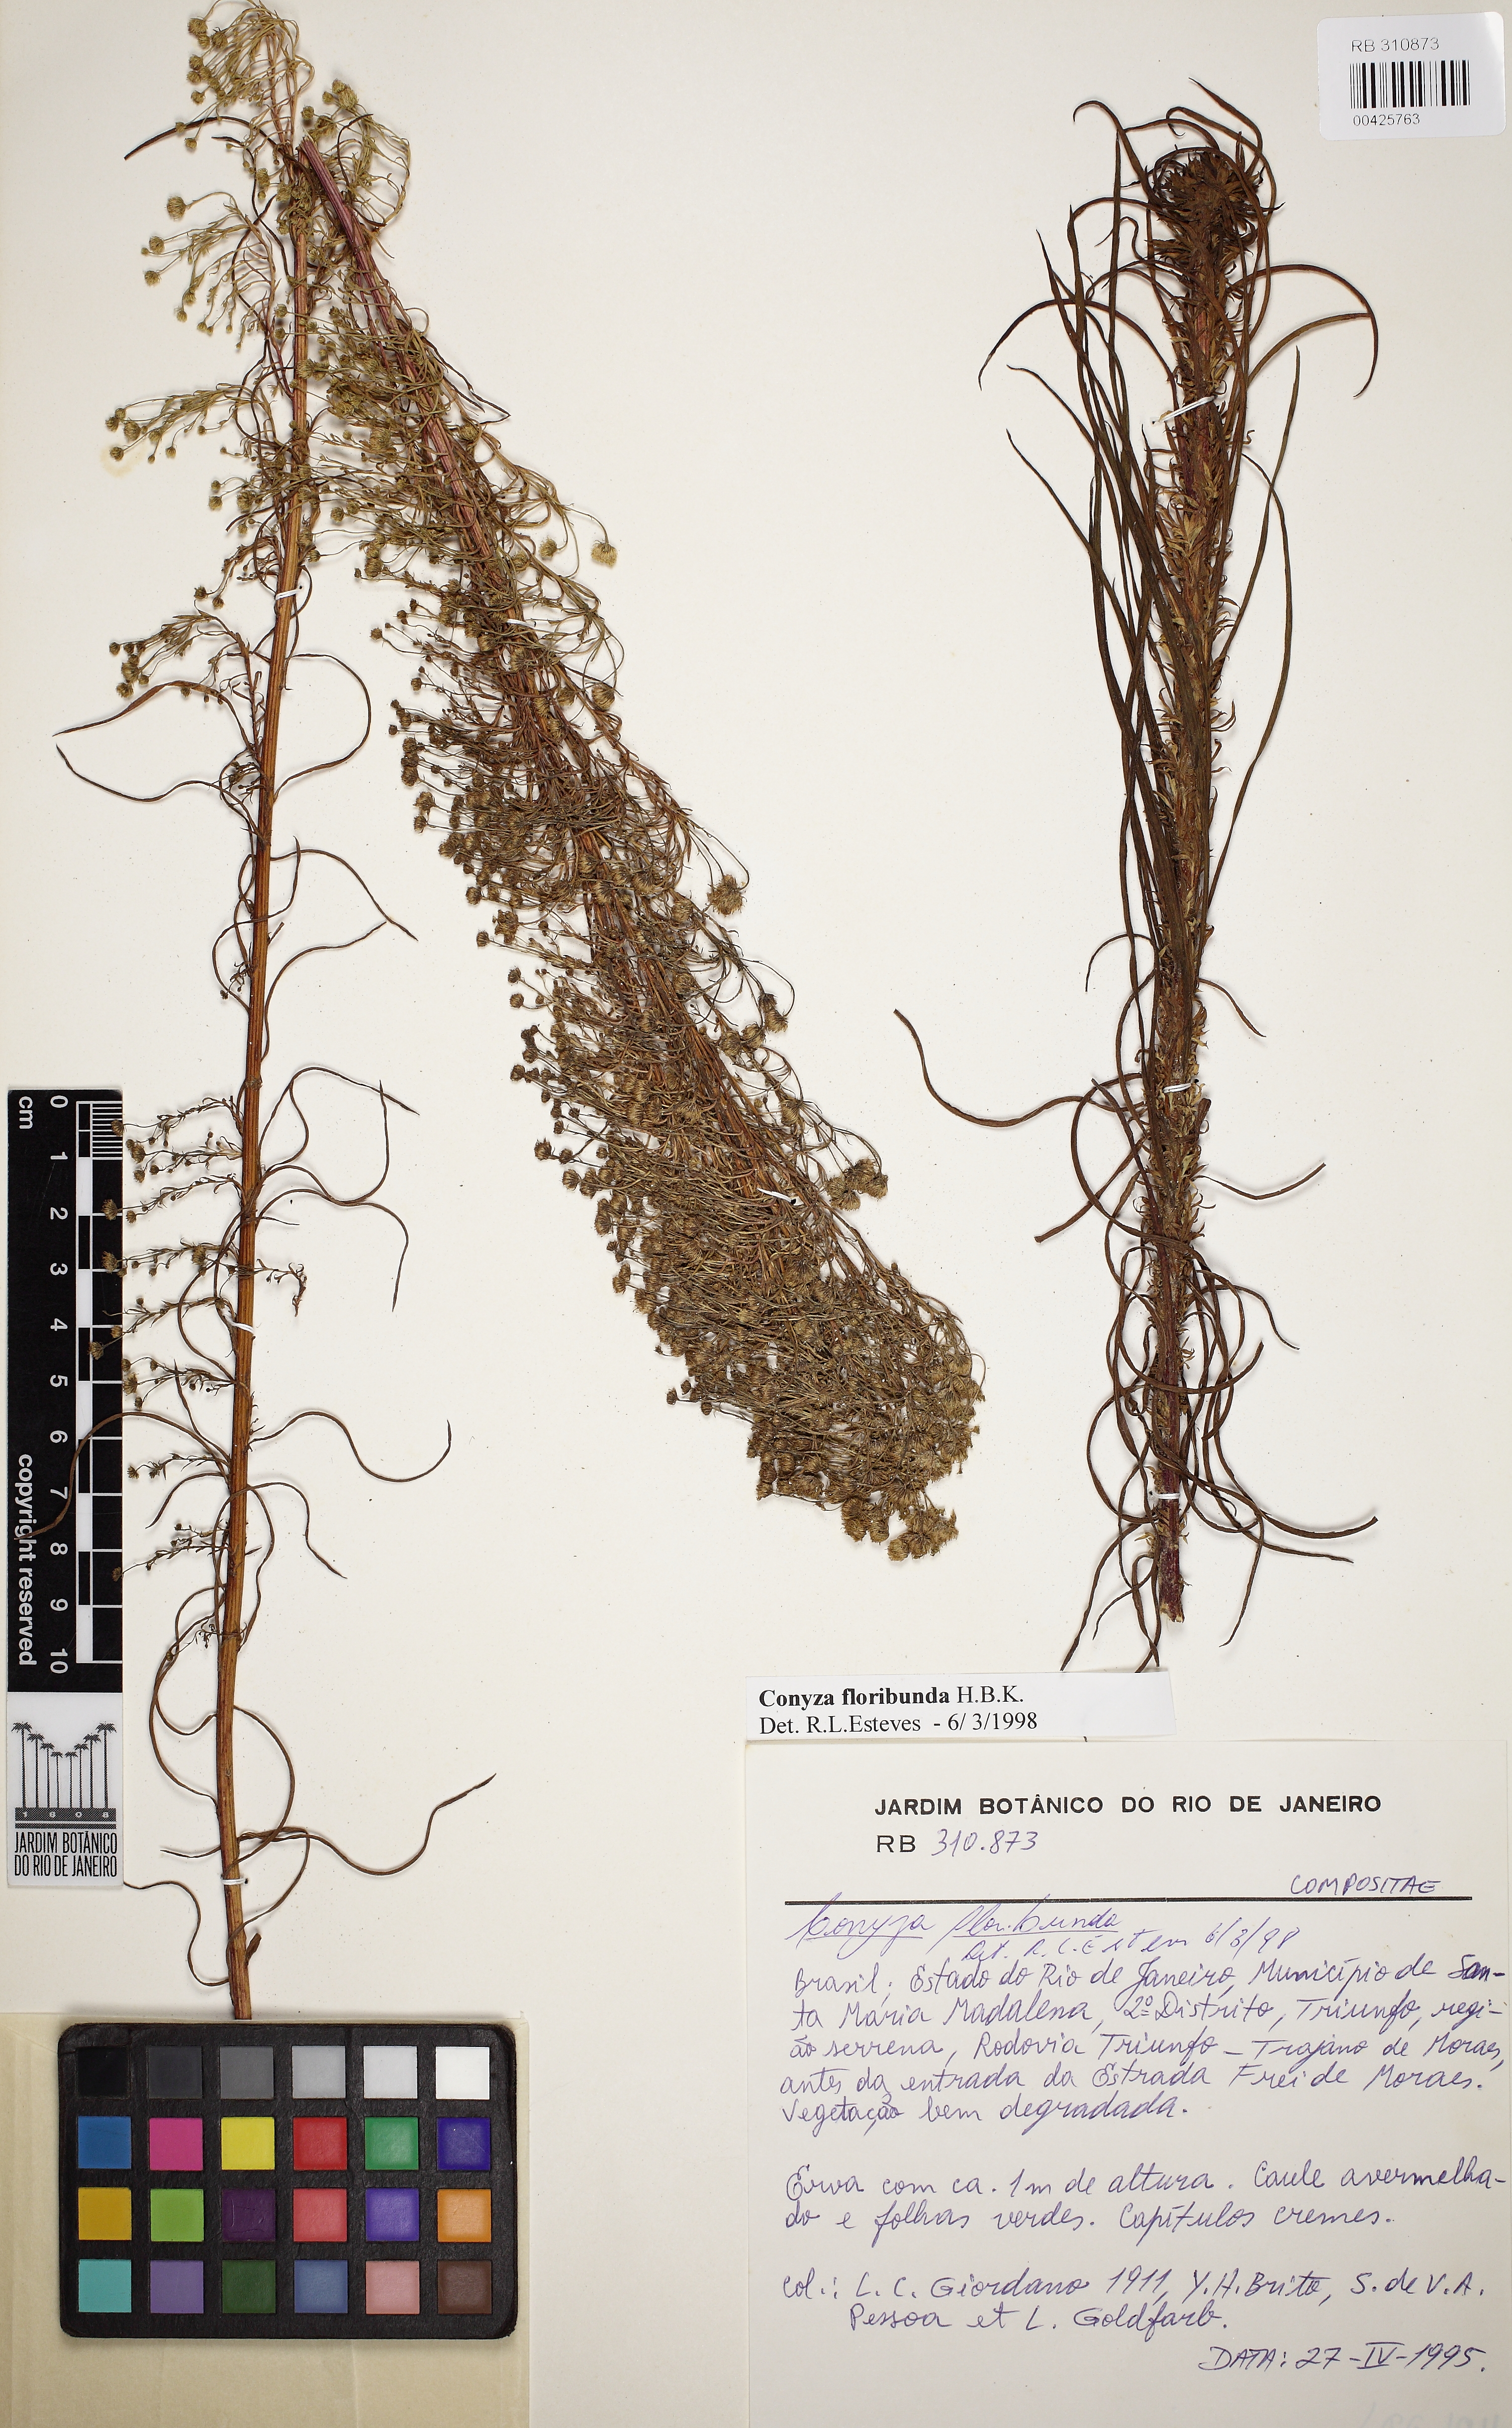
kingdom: Plantae
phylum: Tracheophyta
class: Magnoliopsida
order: Asterales
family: Asteraceae
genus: Erigeron
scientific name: Erigeron
